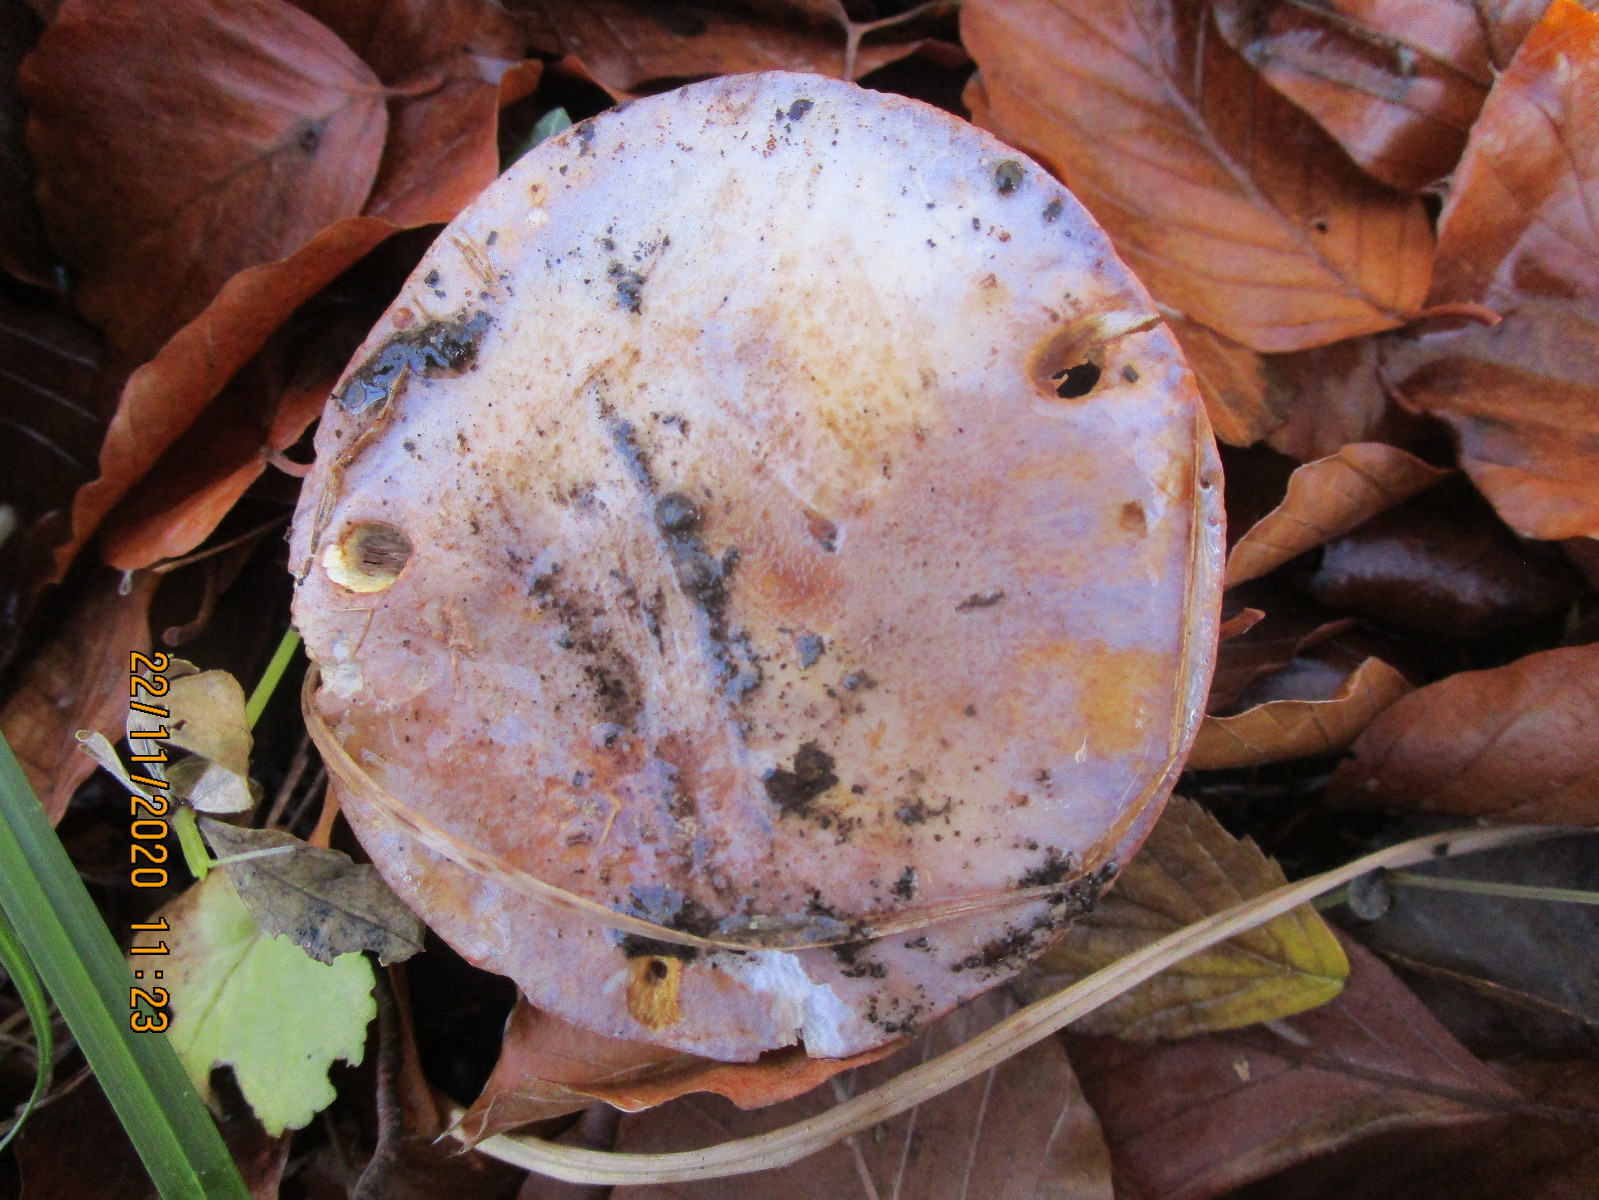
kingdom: Fungi
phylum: Basidiomycota
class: Agaricomycetes
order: Agaricales
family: Cortinariaceae
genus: Calonarius
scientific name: Calonarius violaceipes
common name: stedmoder-slørhat
